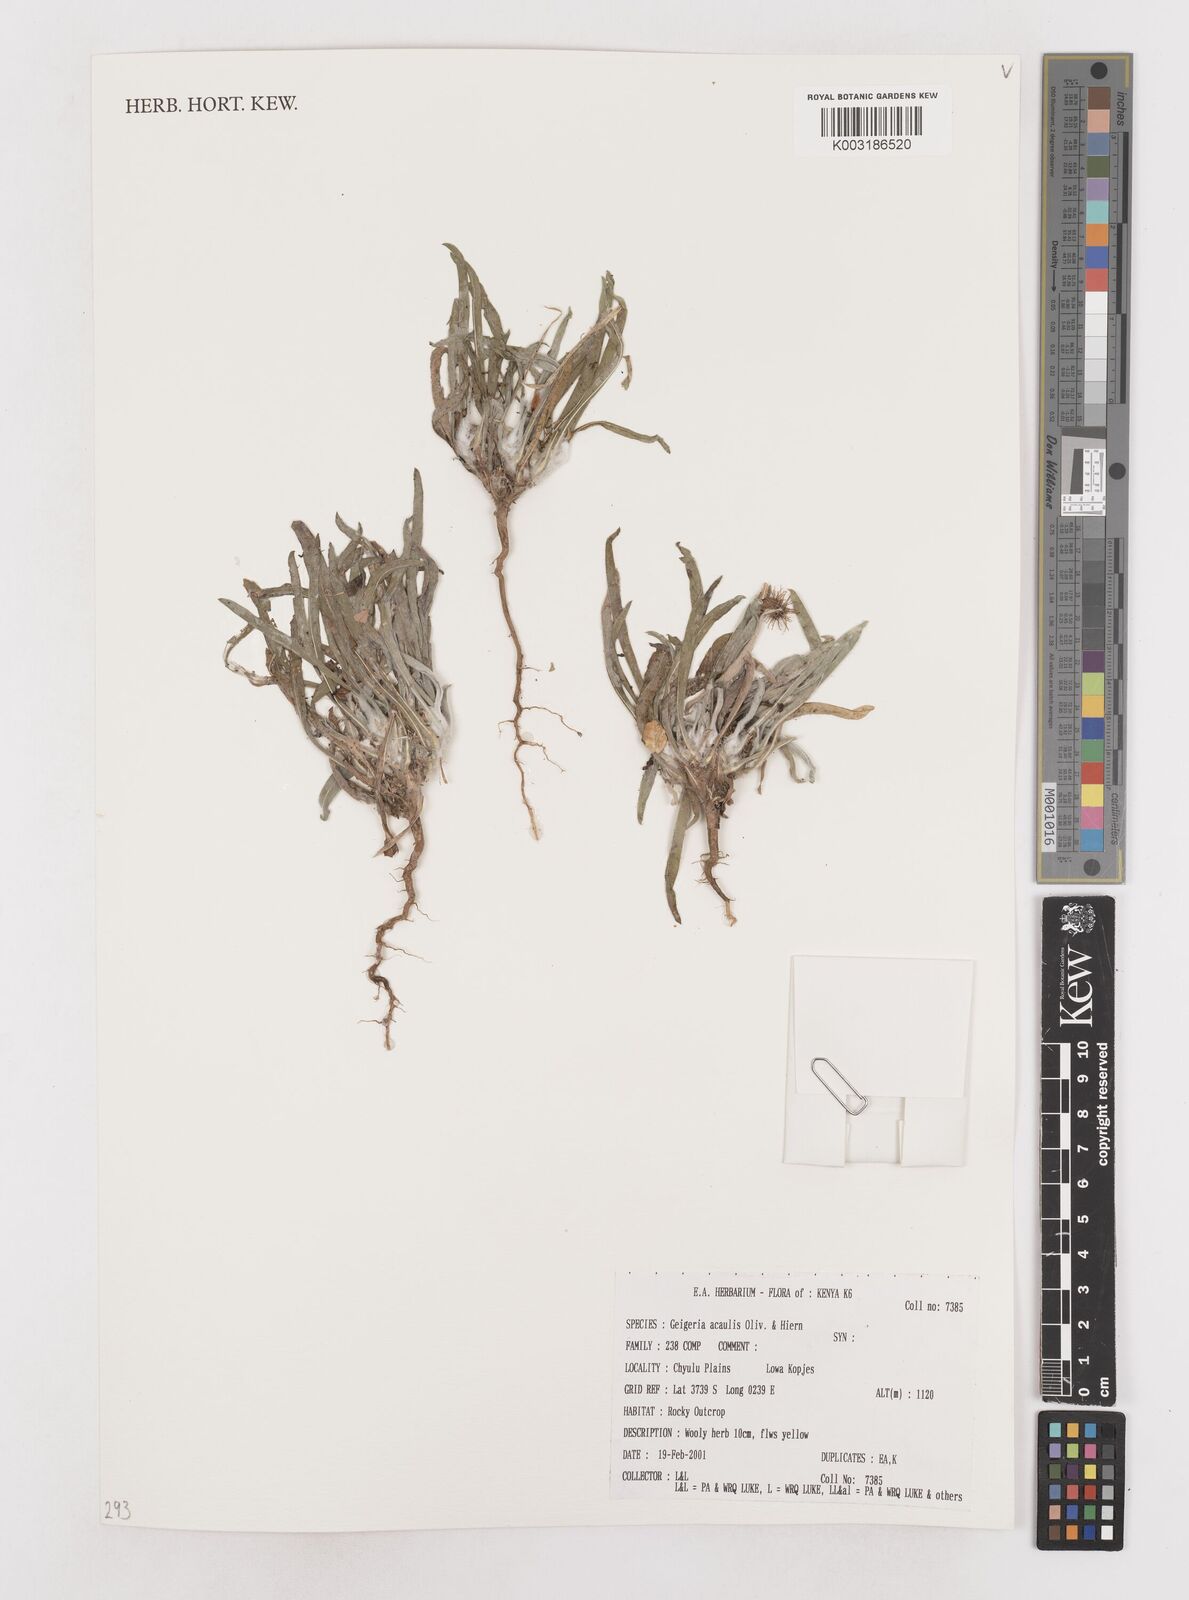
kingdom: Plantae
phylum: Tracheophyta
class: Magnoliopsida
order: Asterales
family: Asteraceae
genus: Geigeria
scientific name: Geigeria acaulis
